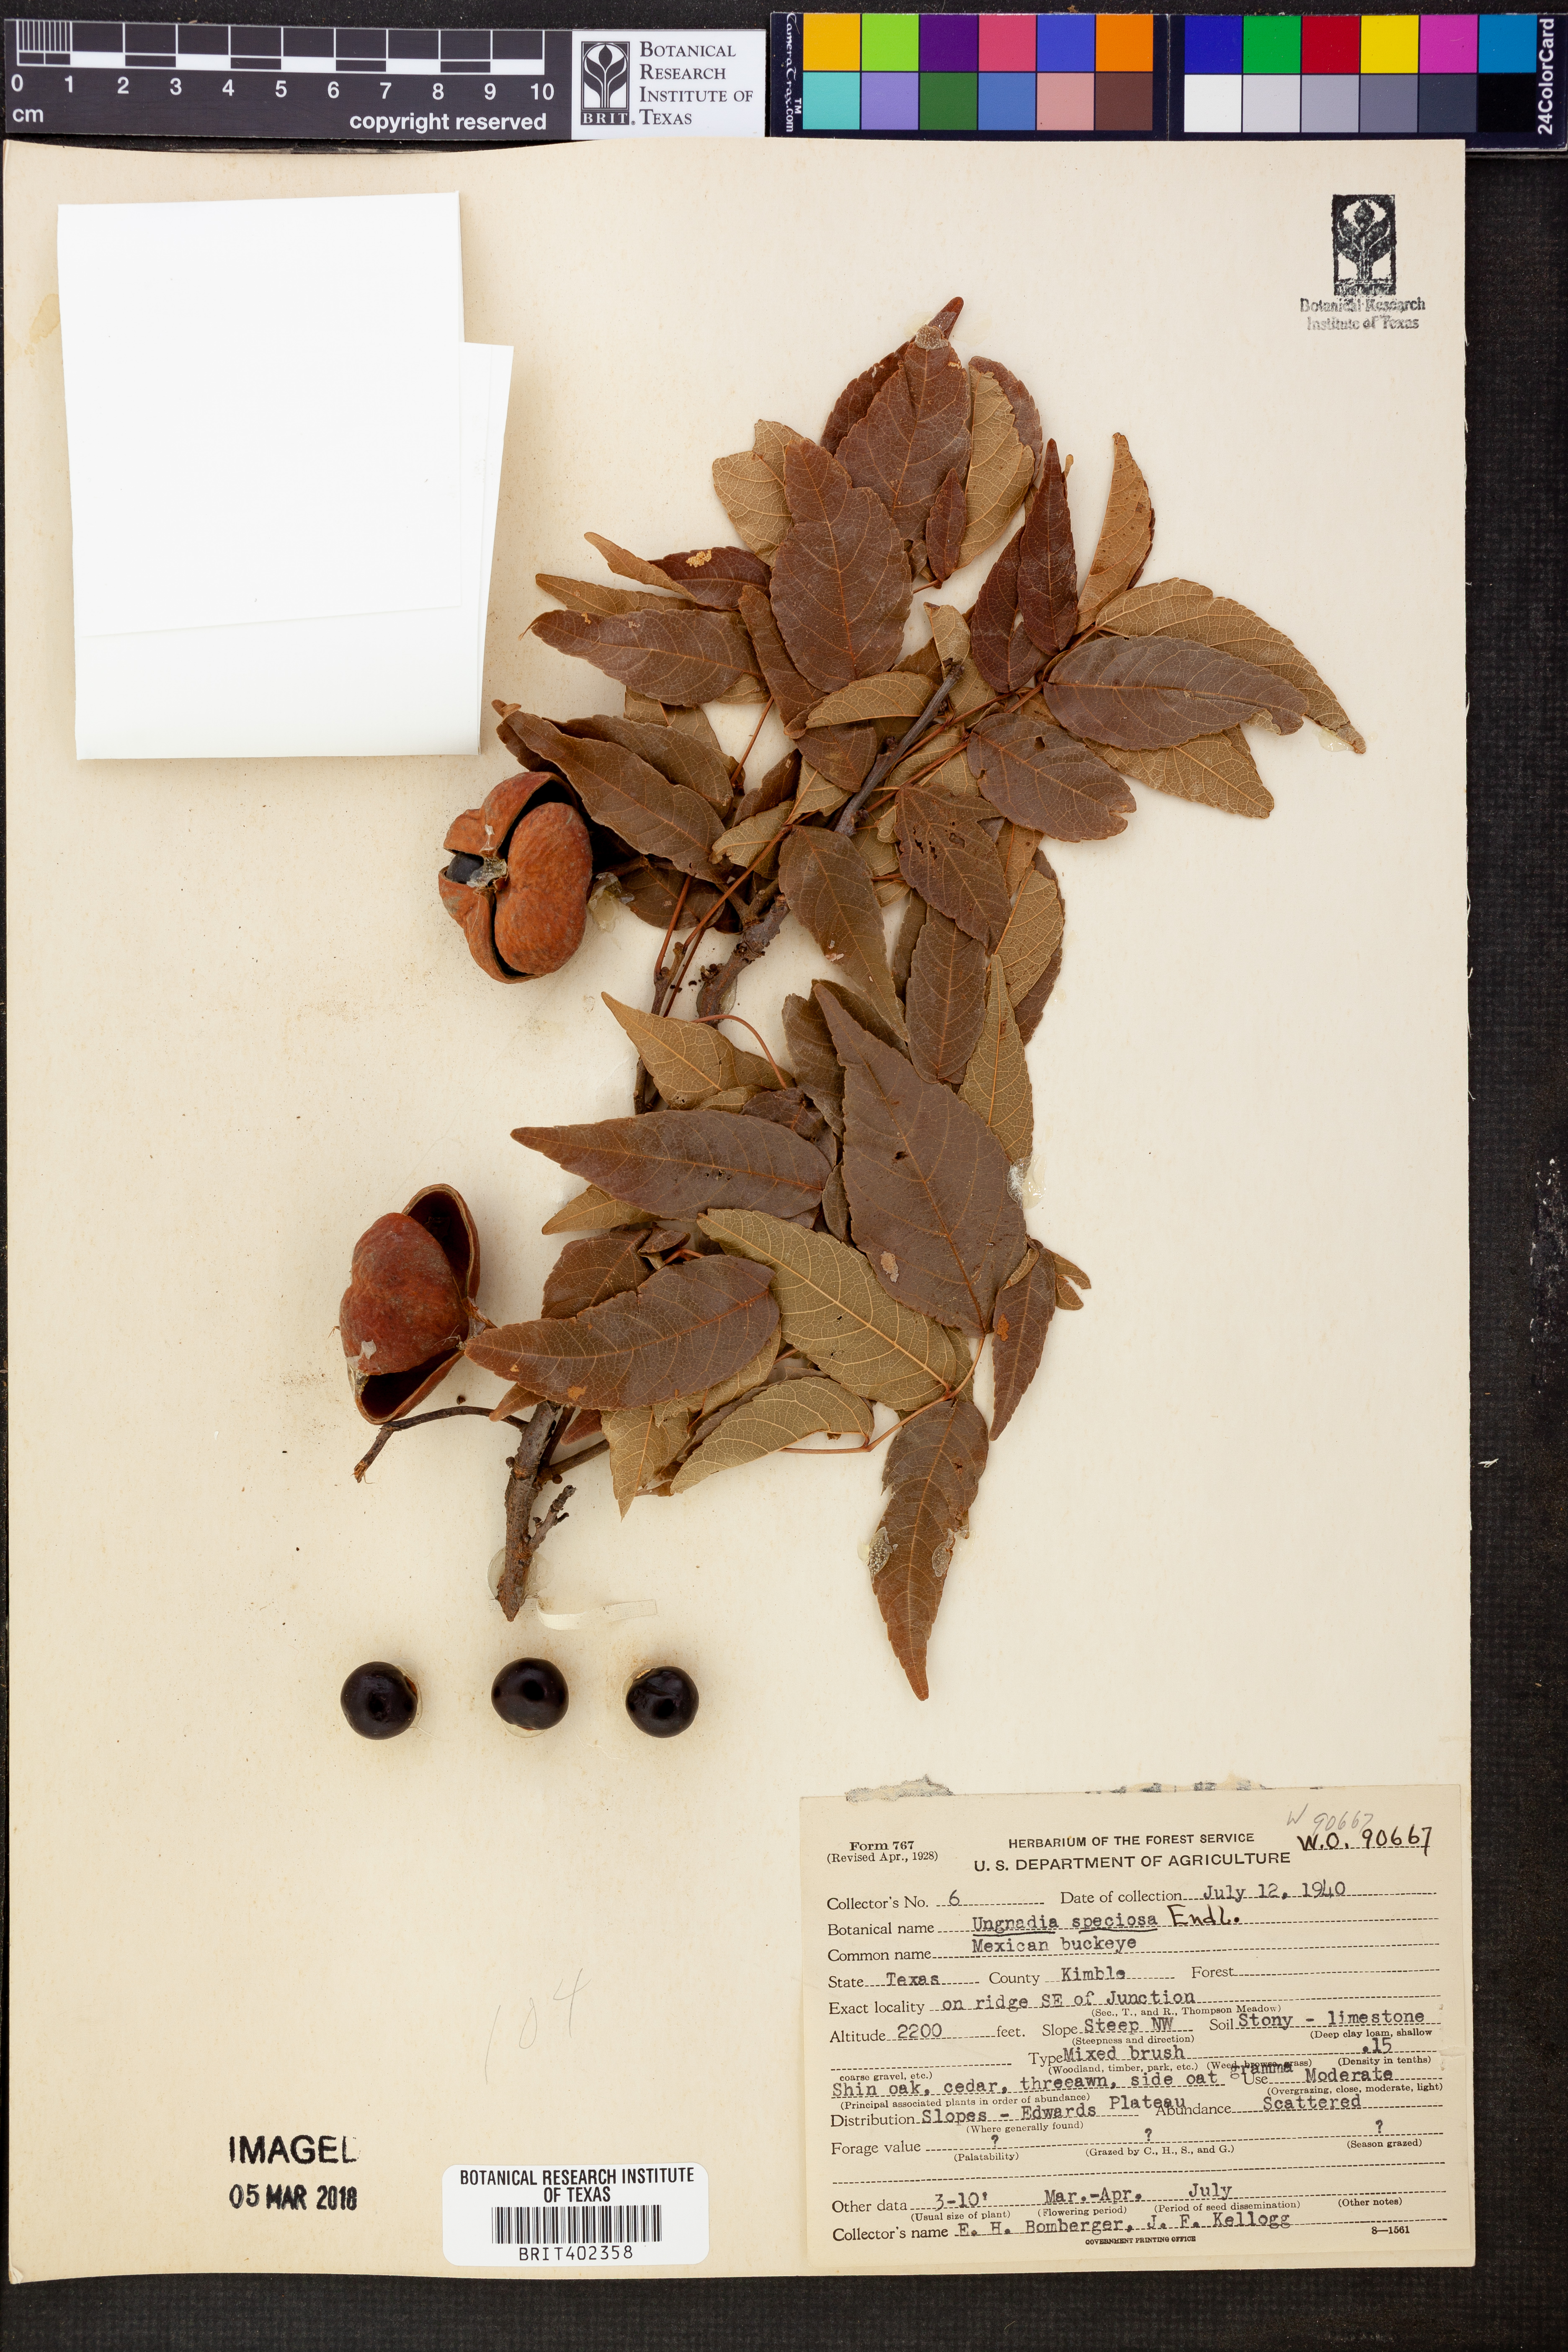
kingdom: Plantae
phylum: Tracheophyta
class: Magnoliopsida
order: Sapindales
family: Sapindaceae
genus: Ungnadia
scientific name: Ungnadia speciosa
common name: Texas-buckeye
